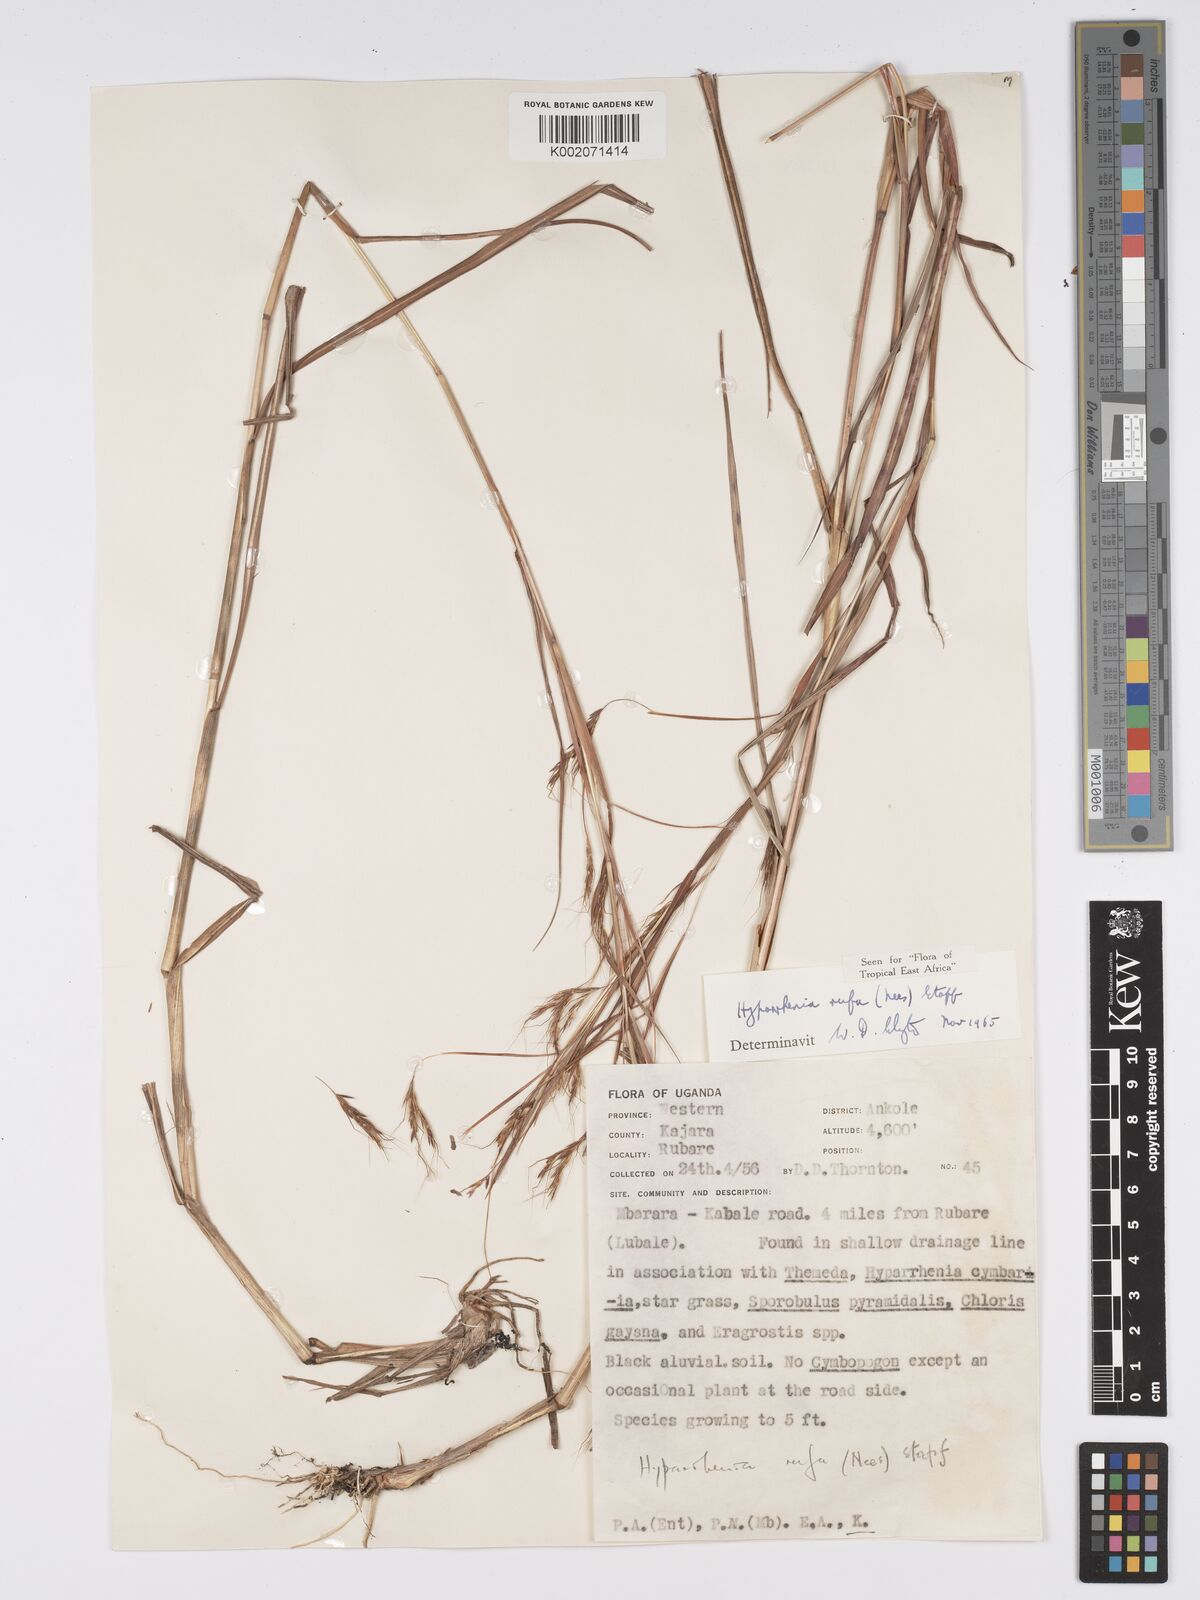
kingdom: Plantae
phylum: Tracheophyta
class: Liliopsida
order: Poales
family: Poaceae
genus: Hyparrhenia
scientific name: Hyparrhenia rufa
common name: Jaraguagrass
